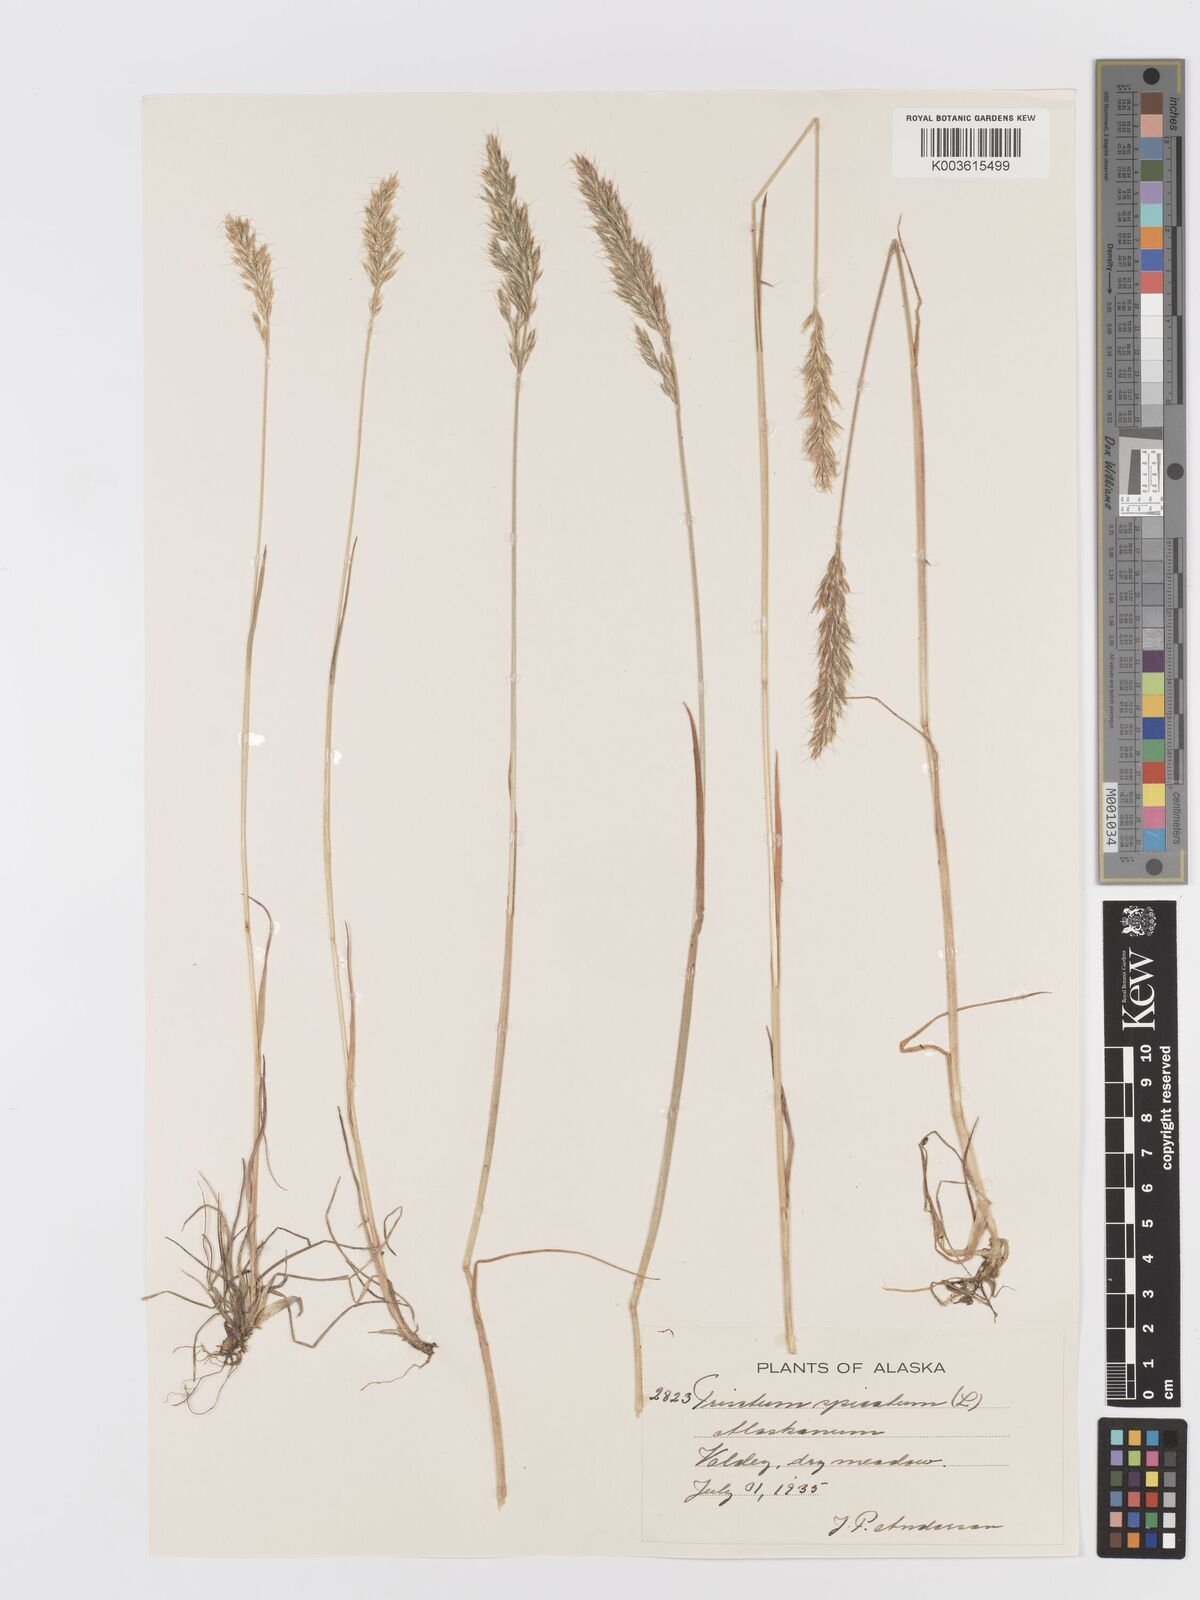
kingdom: Plantae
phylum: Tracheophyta
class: Liliopsida
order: Poales
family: Poaceae
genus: Koeleria
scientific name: Koeleria spicata
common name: Mountain trisetum
